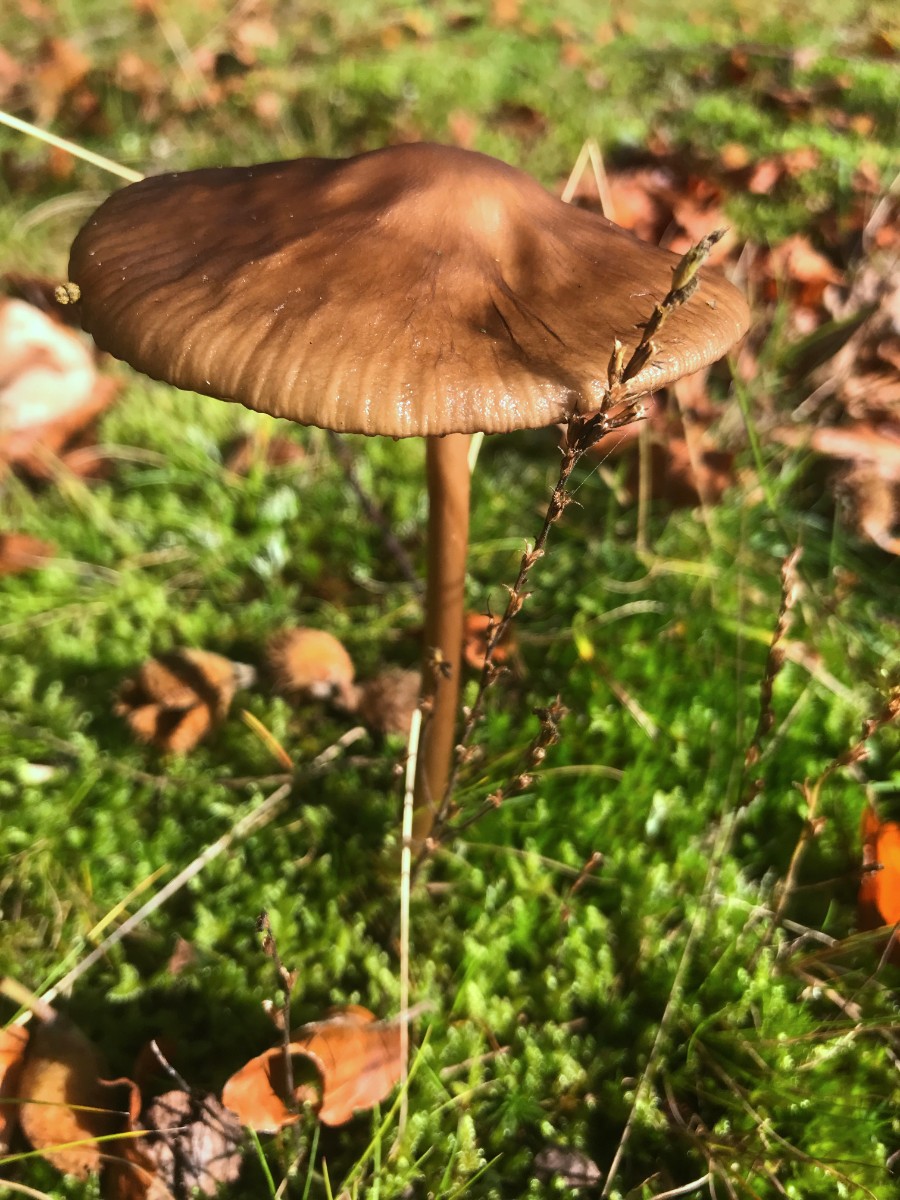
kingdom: Fungi
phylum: Basidiomycota
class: Agaricomycetes
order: Agaricales
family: Physalacriaceae
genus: Hymenopellis
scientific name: Hymenopellis radicata
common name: almindelig pælerodshat
